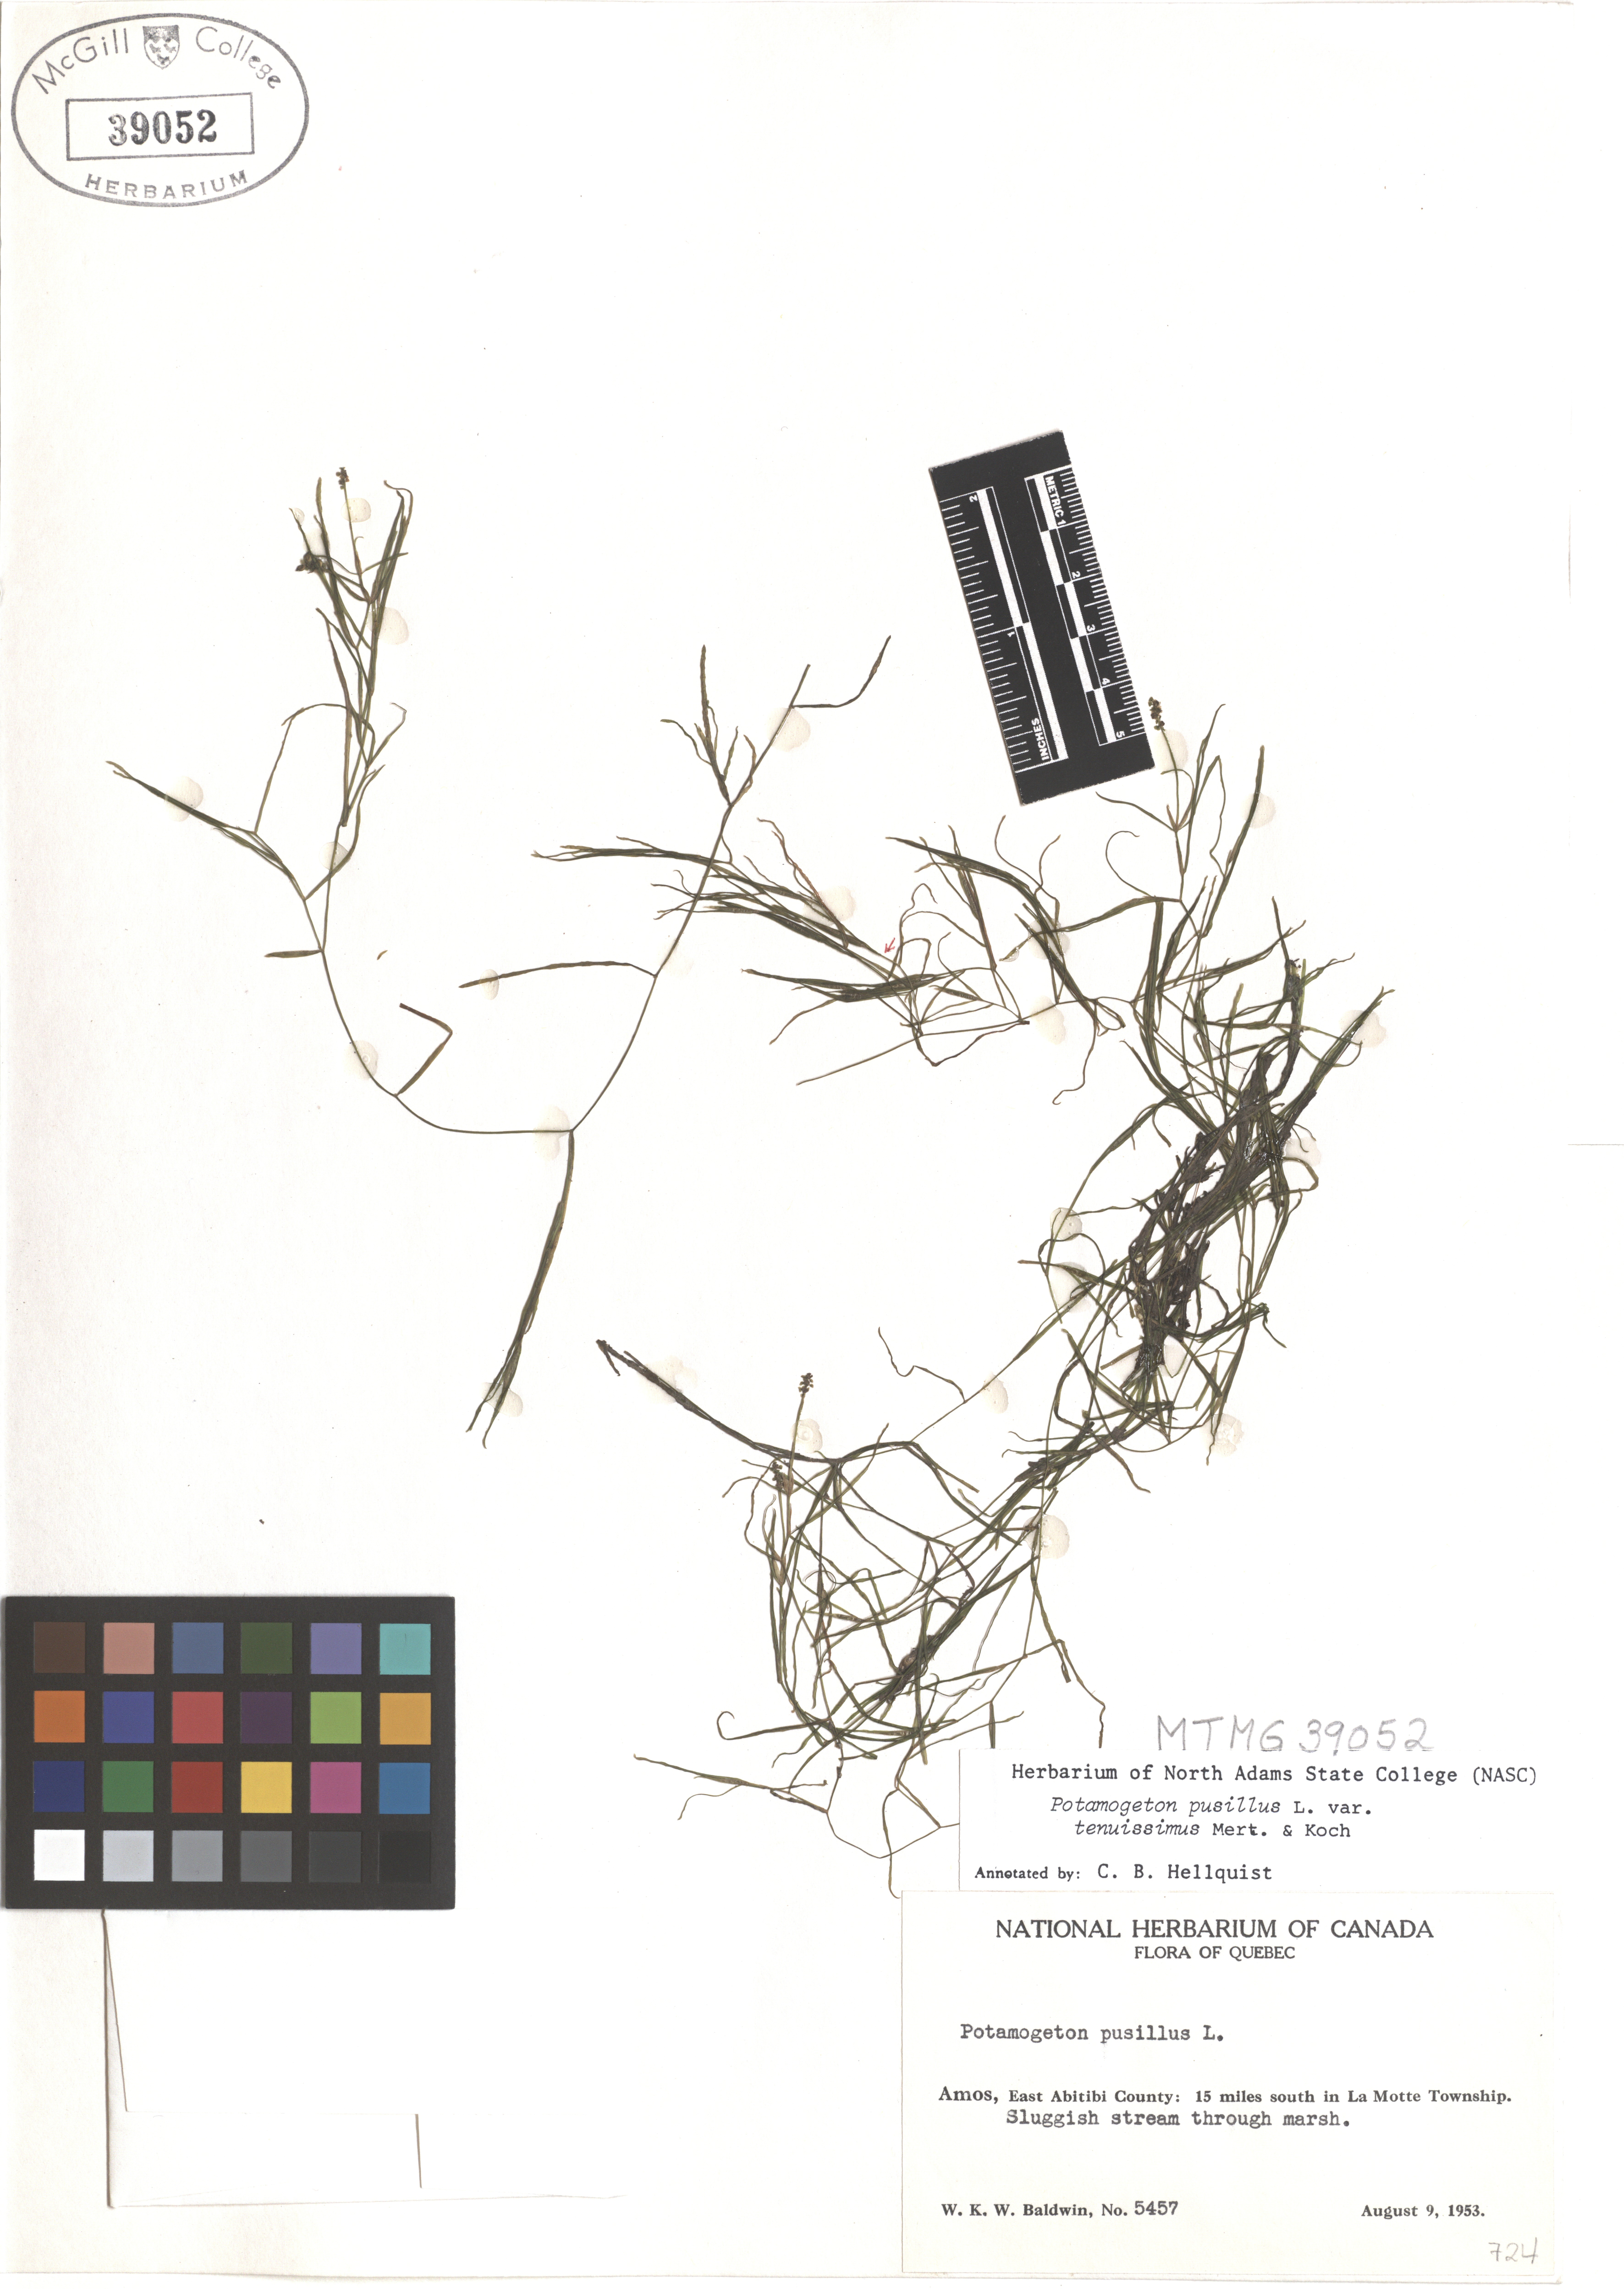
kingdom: Plantae
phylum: Tracheophyta
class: Liliopsida
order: Alismatales
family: Potamogetonaceae
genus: Potamogeton
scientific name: Potamogeton pusillus
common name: Lesser pondweed
